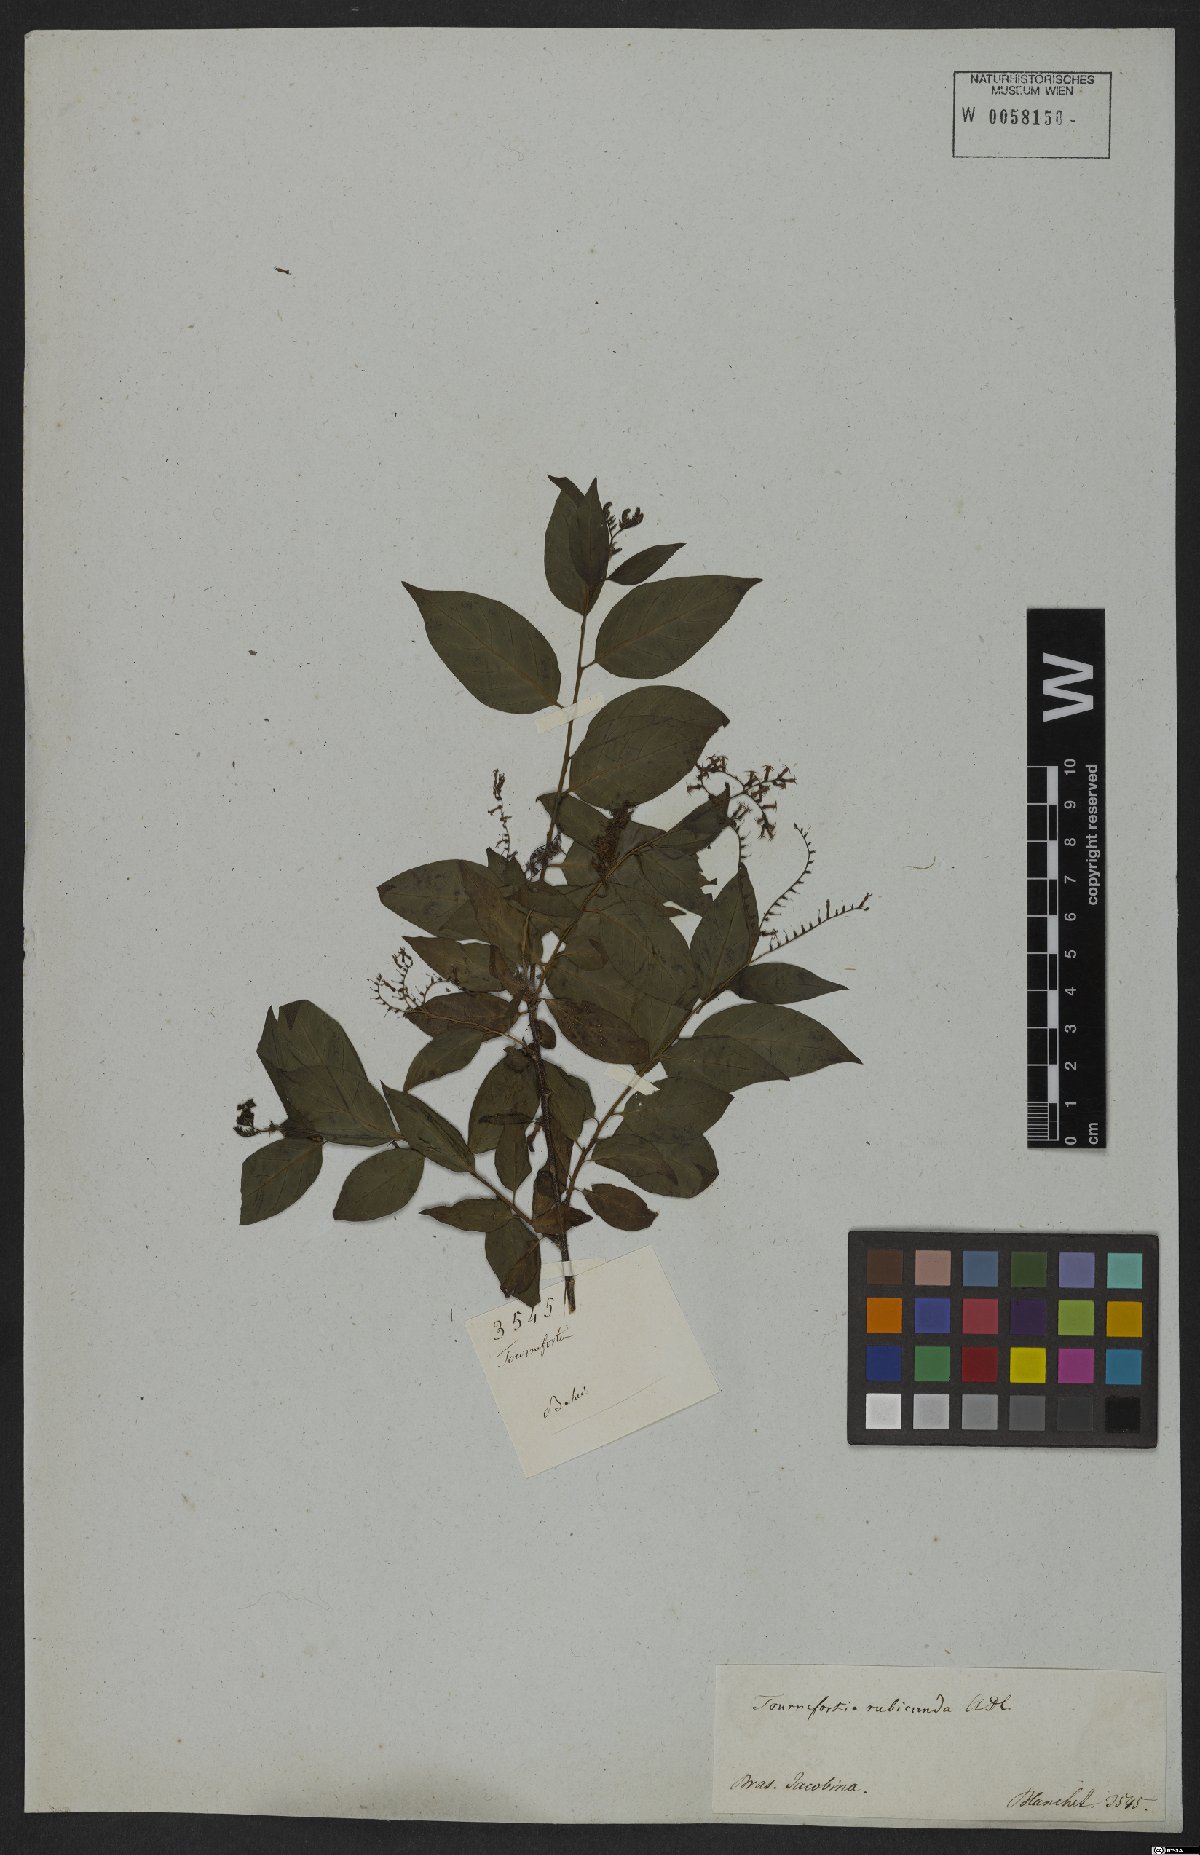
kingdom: Plantae
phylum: Tracheophyta
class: Magnoliopsida
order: Boraginales
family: Heliotropiaceae
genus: Myriopus
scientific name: Myriopus rubicundus
